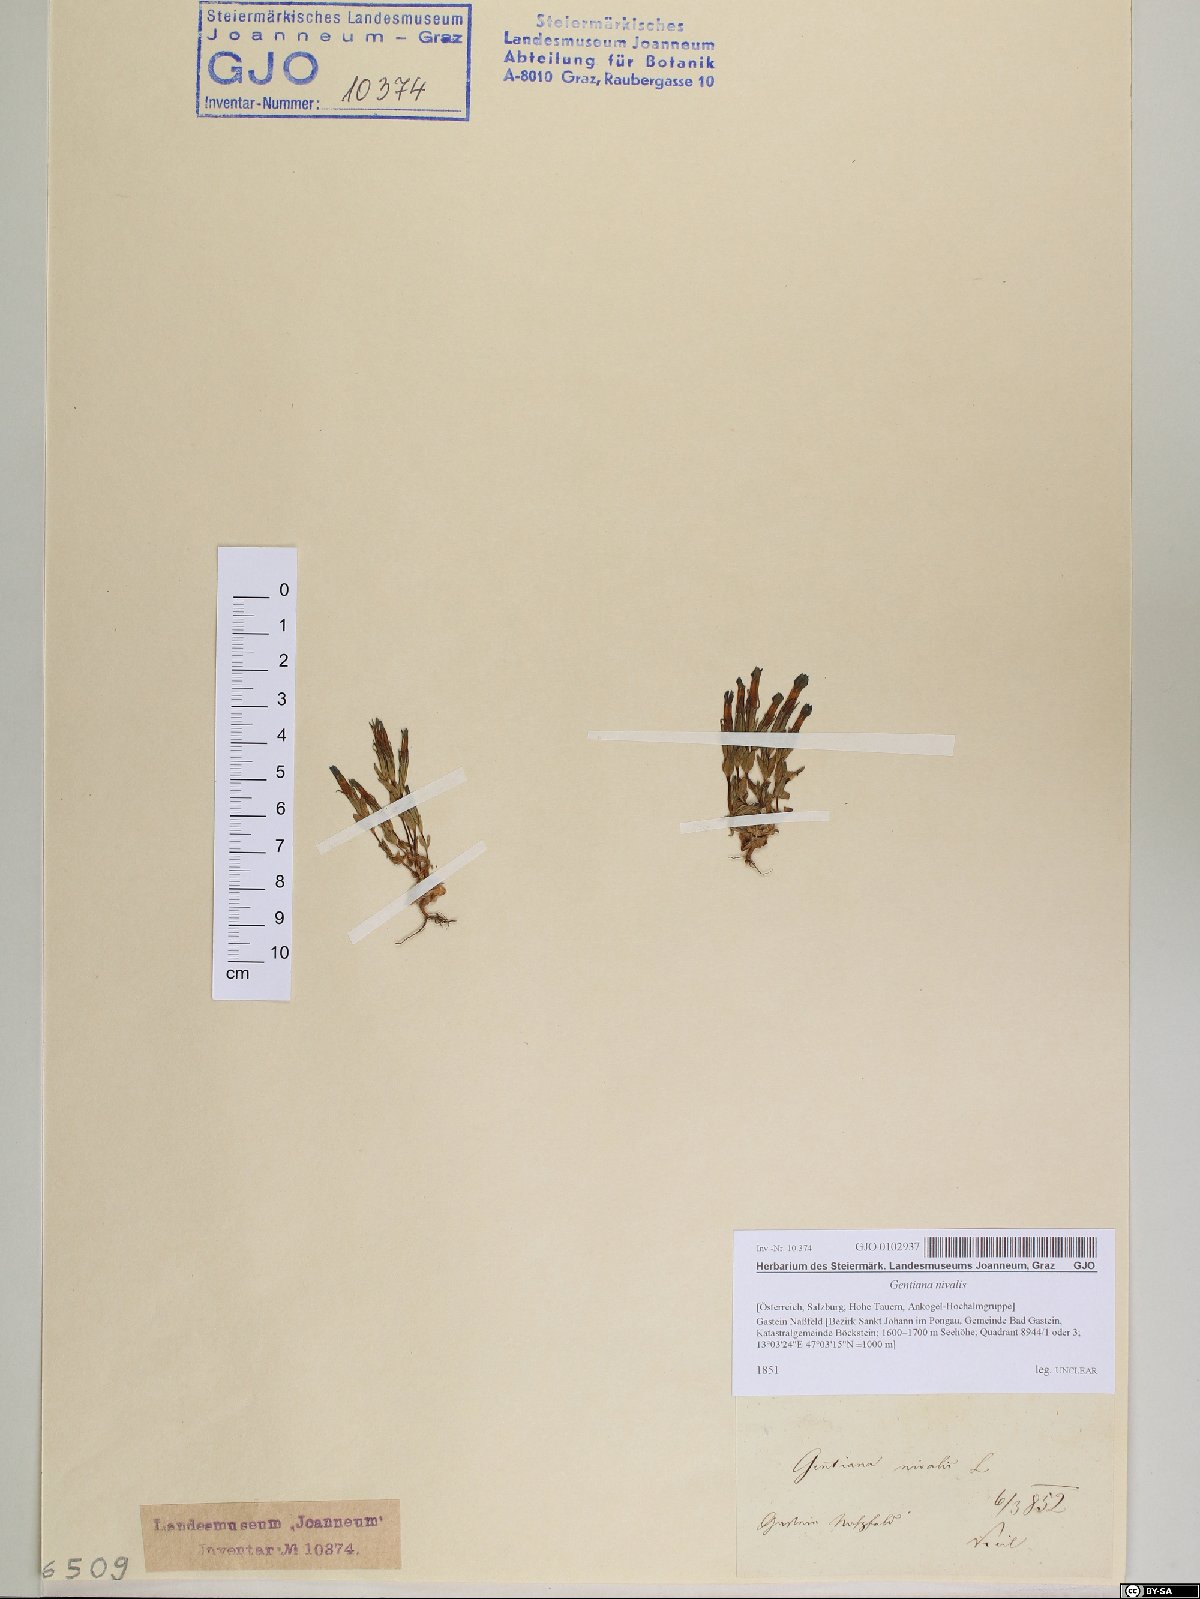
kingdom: Plantae
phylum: Tracheophyta
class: Magnoliopsida
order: Gentianales
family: Gentianaceae
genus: Gentiana
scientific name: Gentiana nivalis
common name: Alpine gentian
